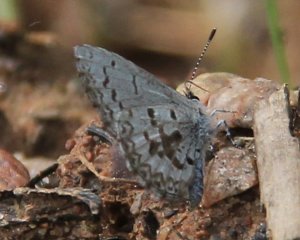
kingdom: Animalia
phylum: Arthropoda
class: Insecta
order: Lepidoptera
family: Lycaenidae
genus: Celastrina
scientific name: Celastrina
